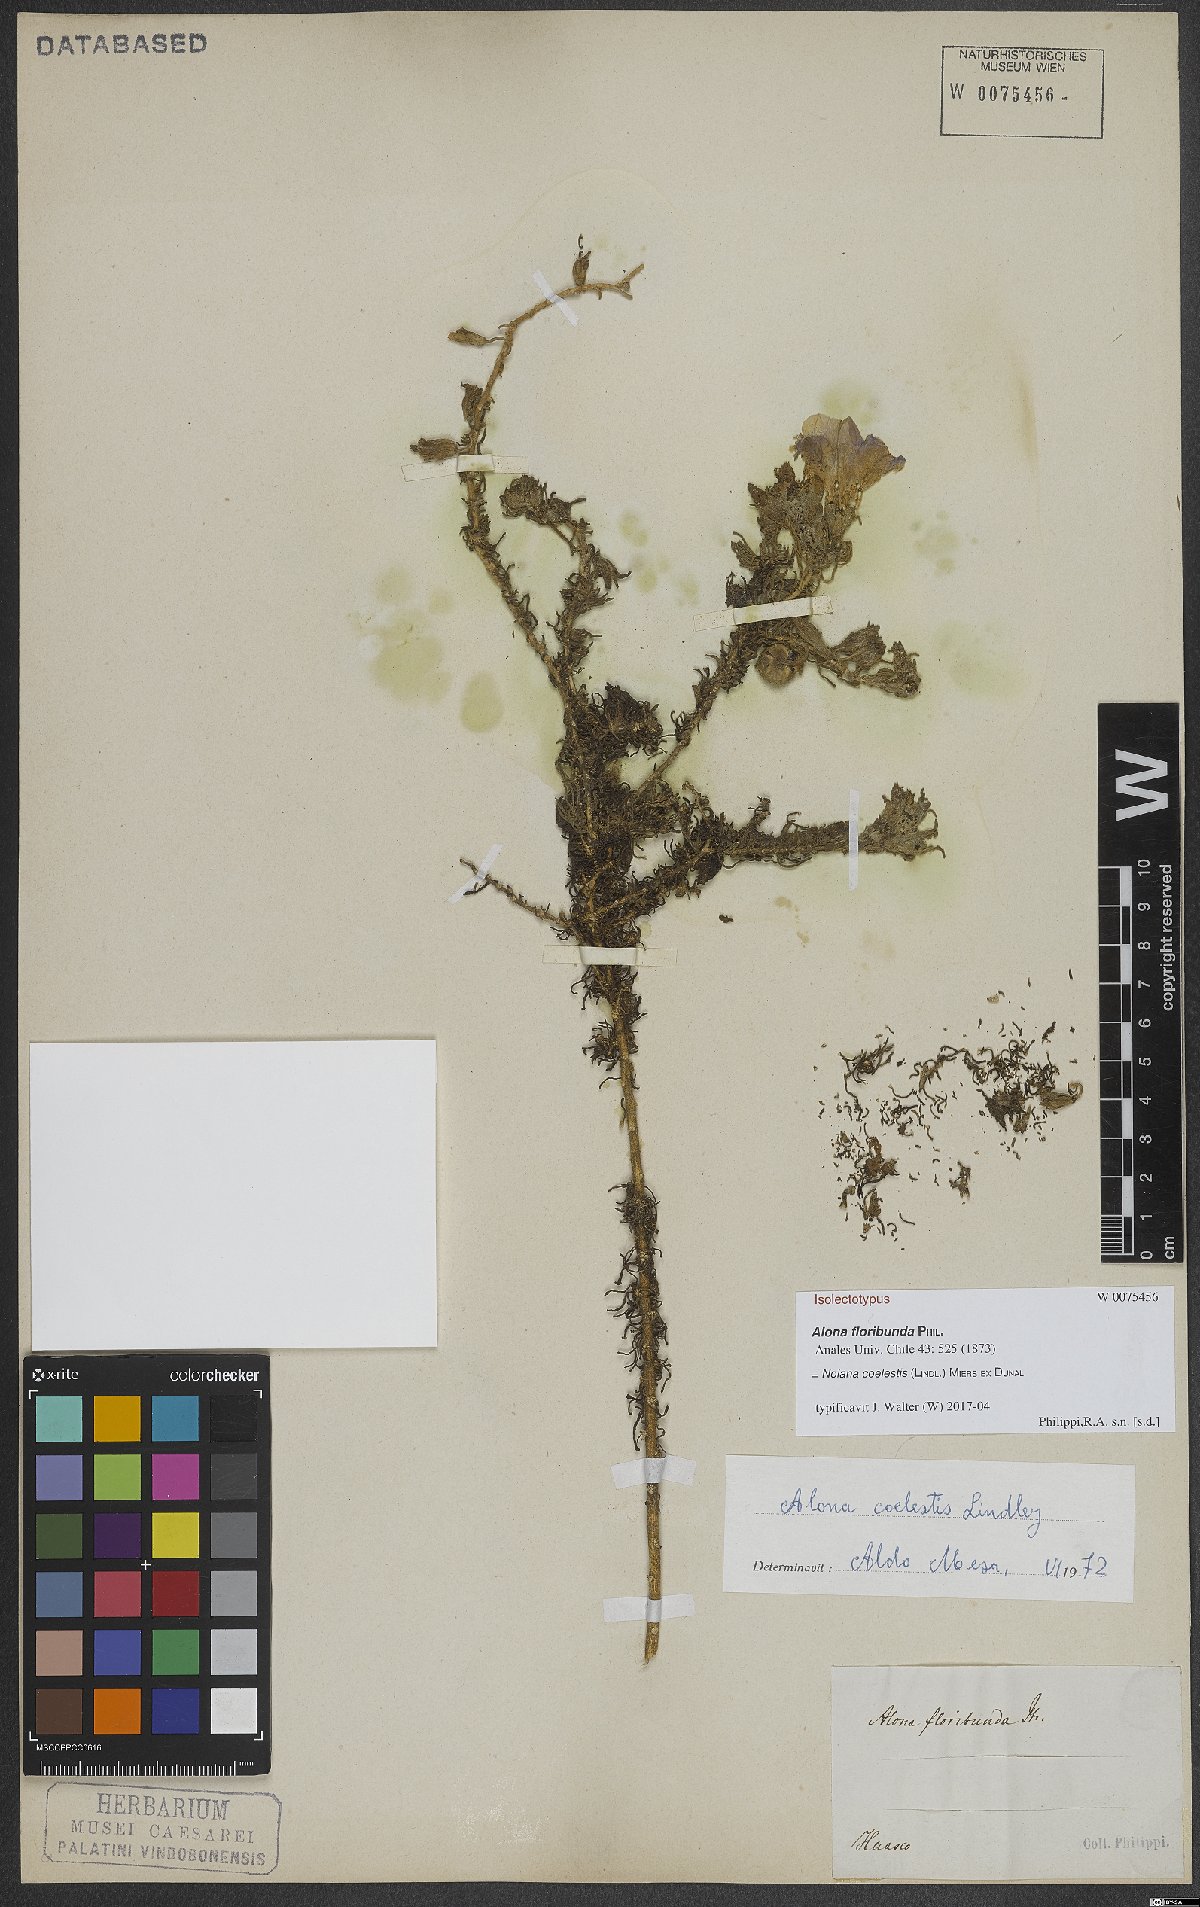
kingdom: Plantae
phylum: Tracheophyta
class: Magnoliopsida
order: Solanales
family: Solanaceae
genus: Nolana
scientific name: Nolana coelestis
